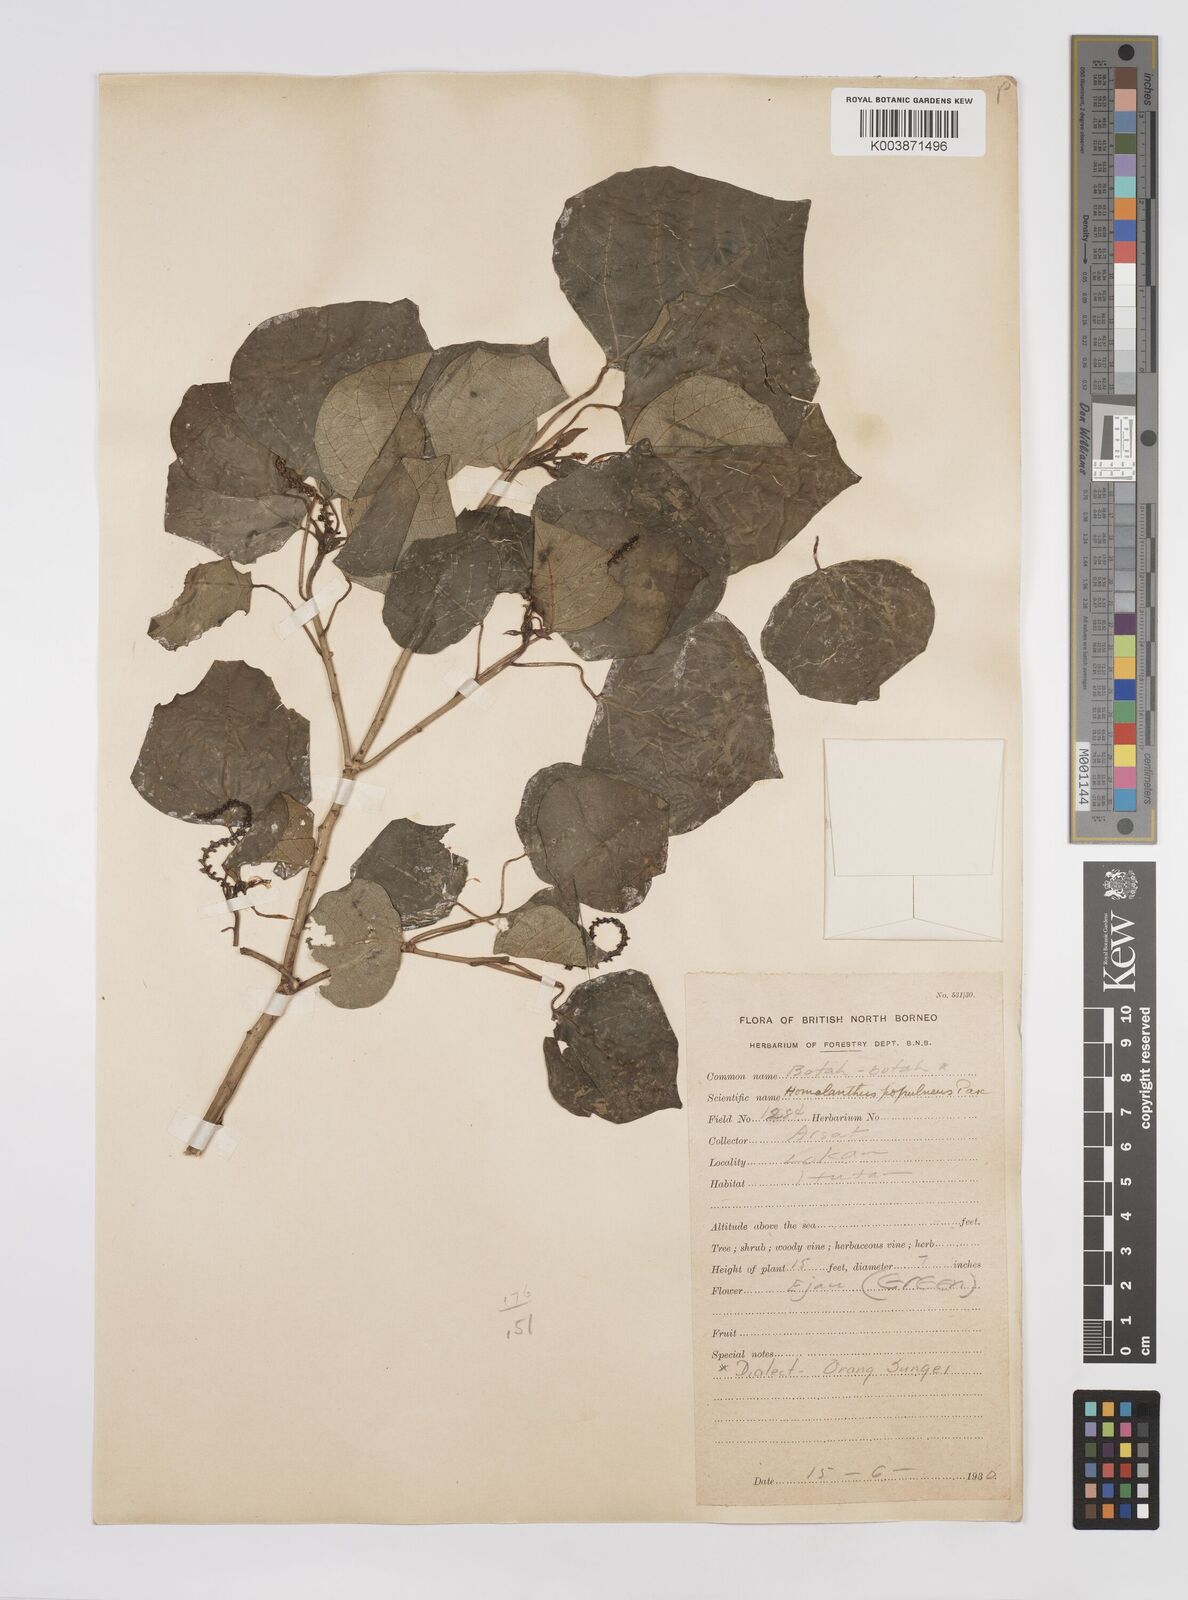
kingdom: Plantae
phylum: Tracheophyta
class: Magnoliopsida
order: Malpighiales
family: Euphorbiaceae
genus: Homalanthus
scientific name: Homalanthus populneus
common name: Spurge
